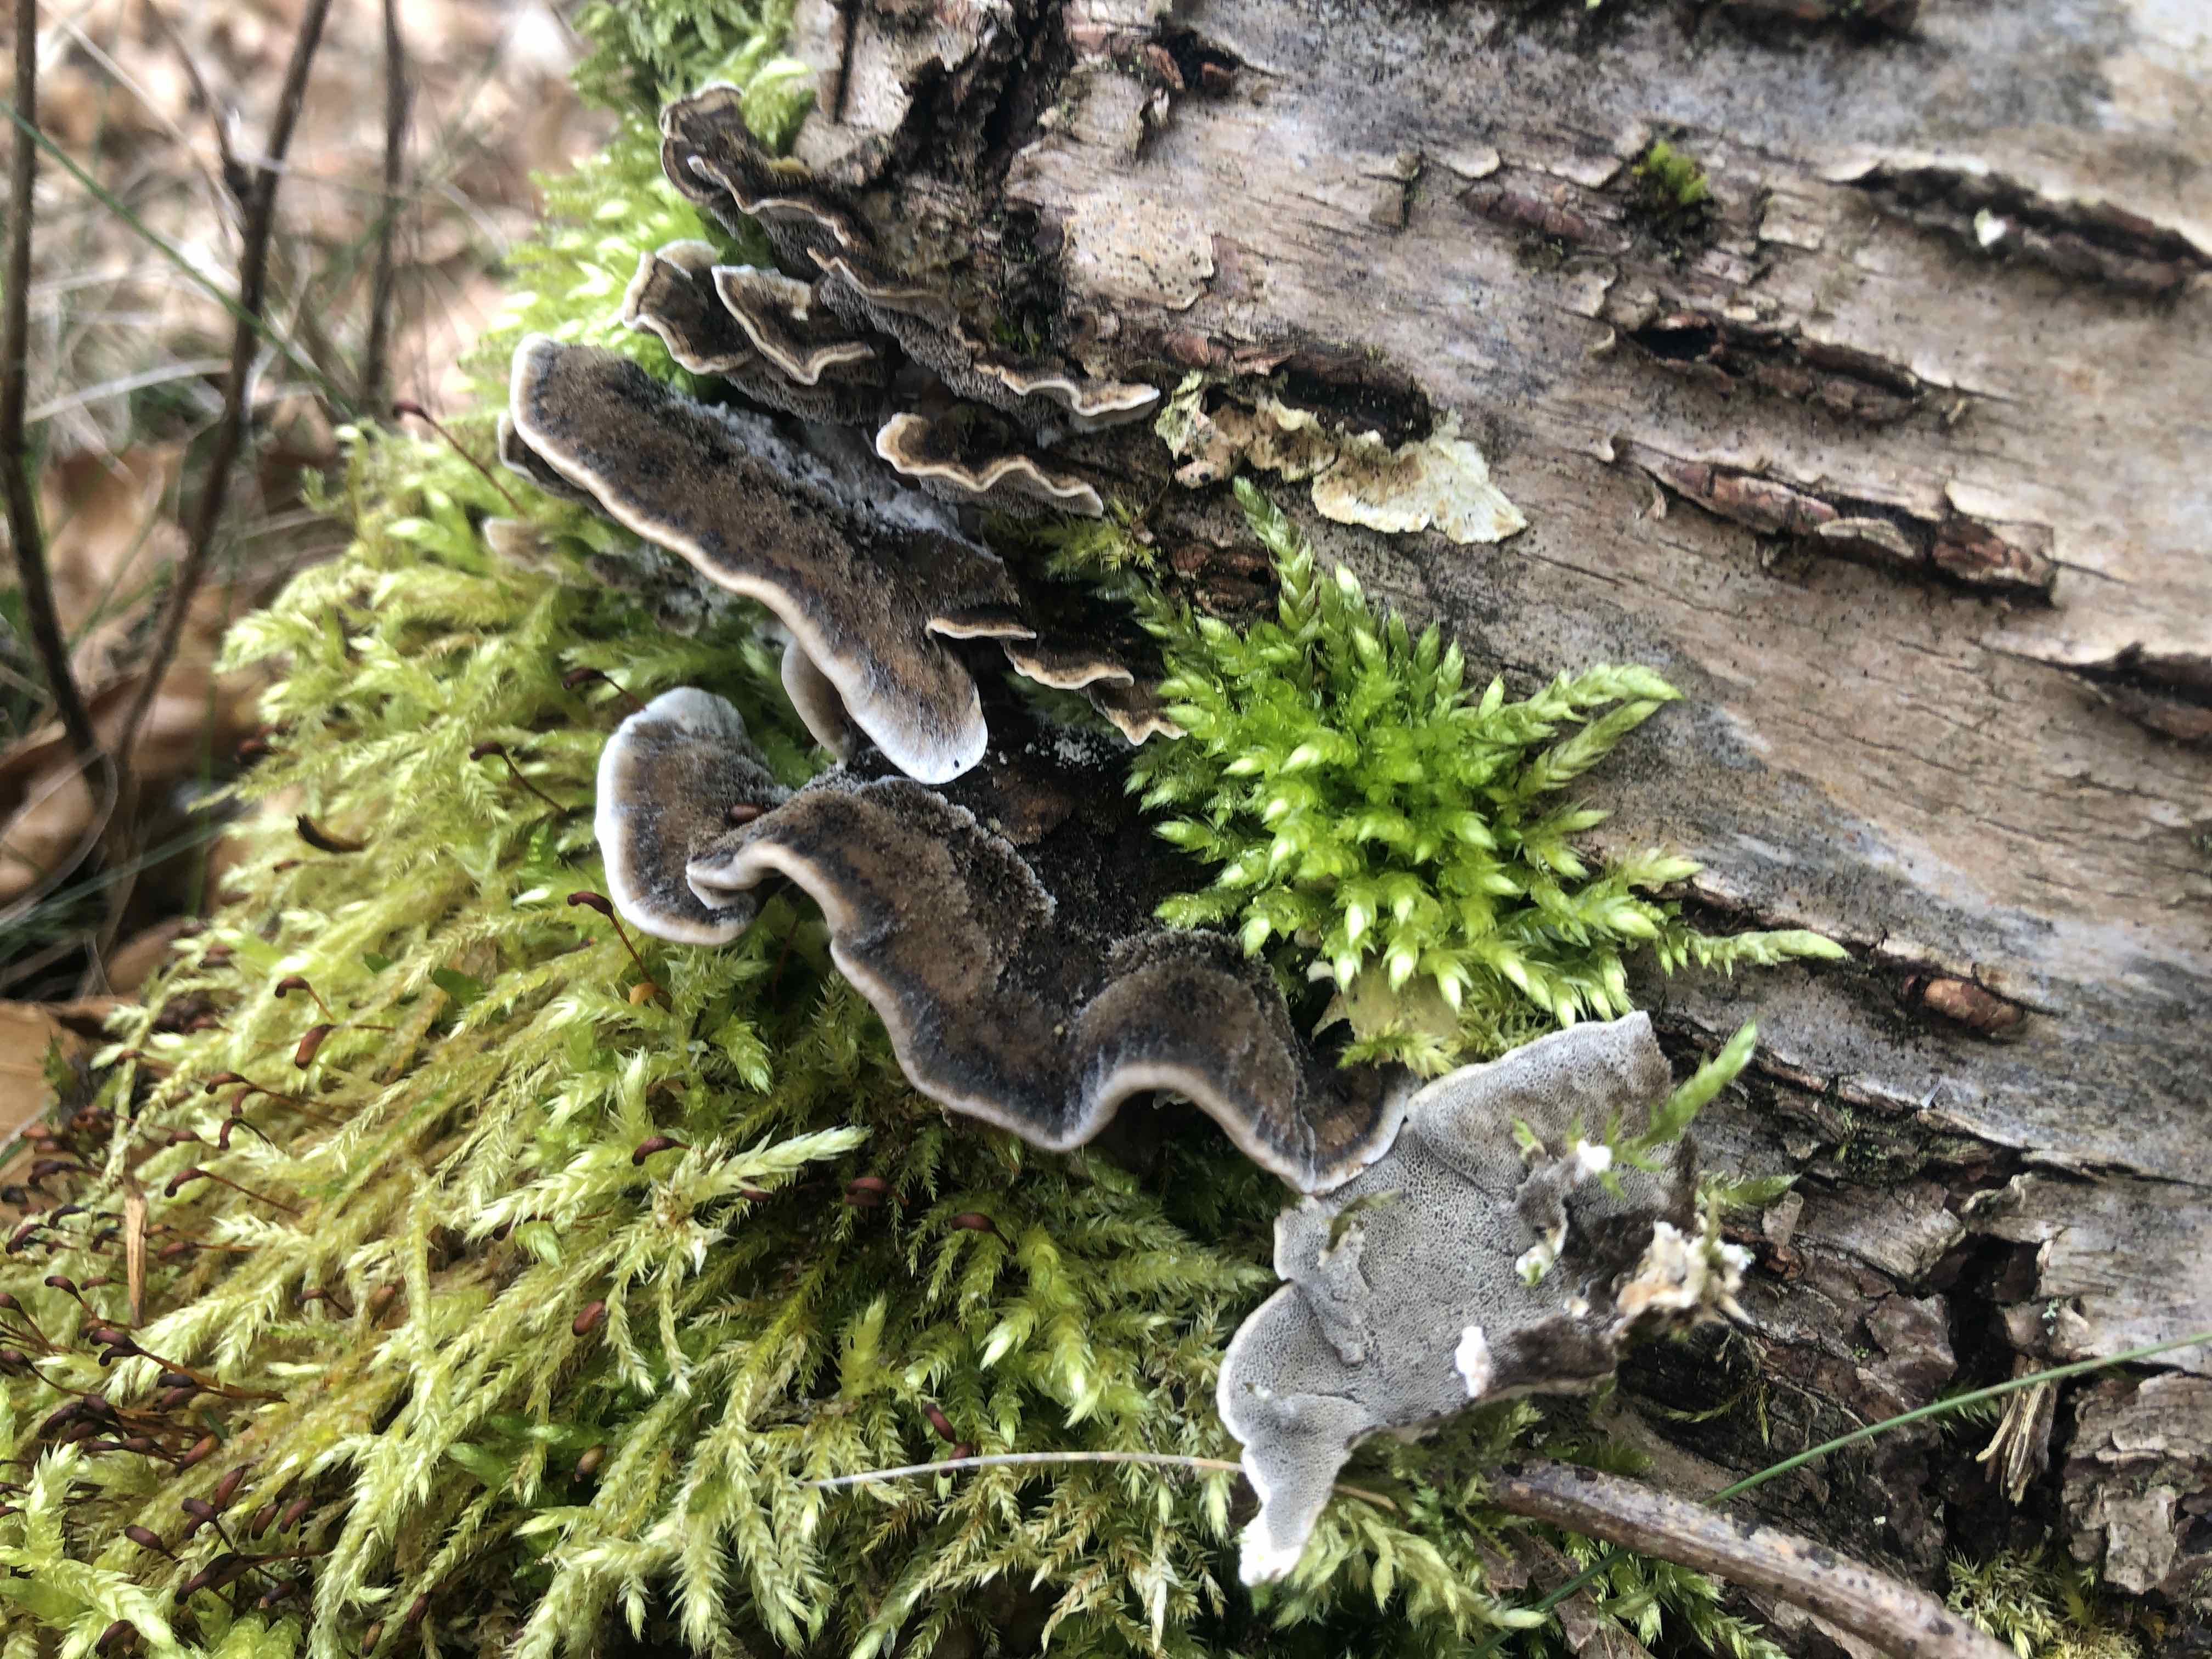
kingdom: Fungi
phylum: Basidiomycota
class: Agaricomycetes
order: Polyporales
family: Phanerochaetaceae
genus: Bjerkandera
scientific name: Bjerkandera adusta
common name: sveden sodporesvamp
